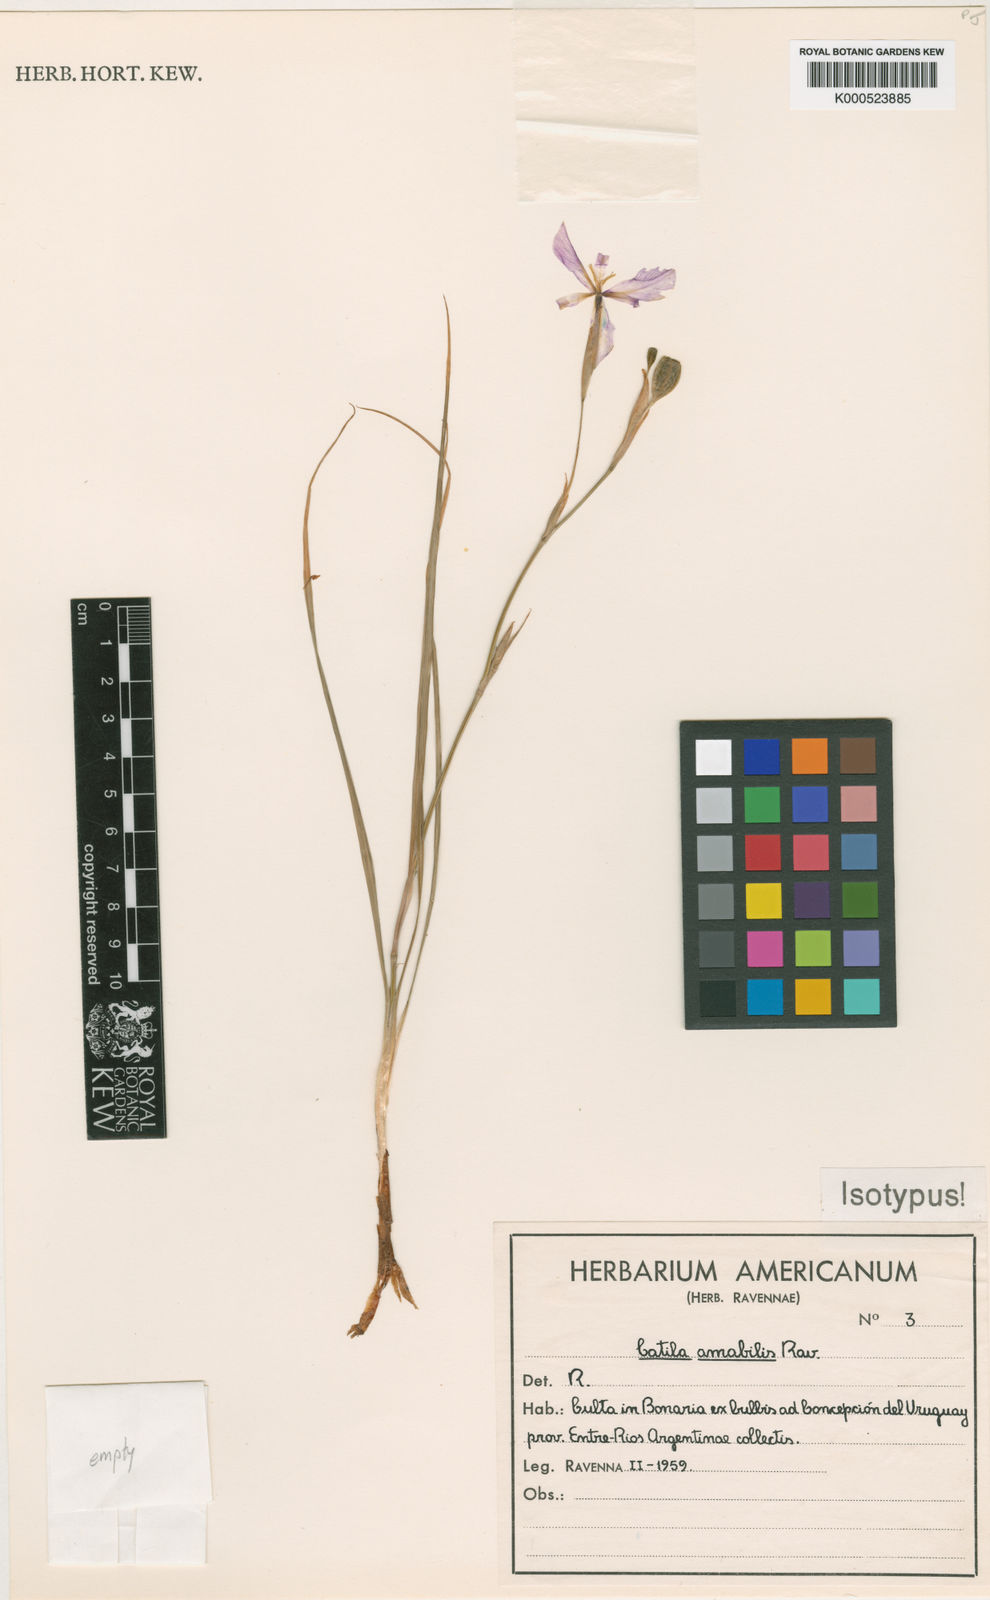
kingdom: Plantae
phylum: Tracheophyta
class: Liliopsida
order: Asparagales
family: Iridaceae
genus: Calydorea
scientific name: Calydorea amabilis
